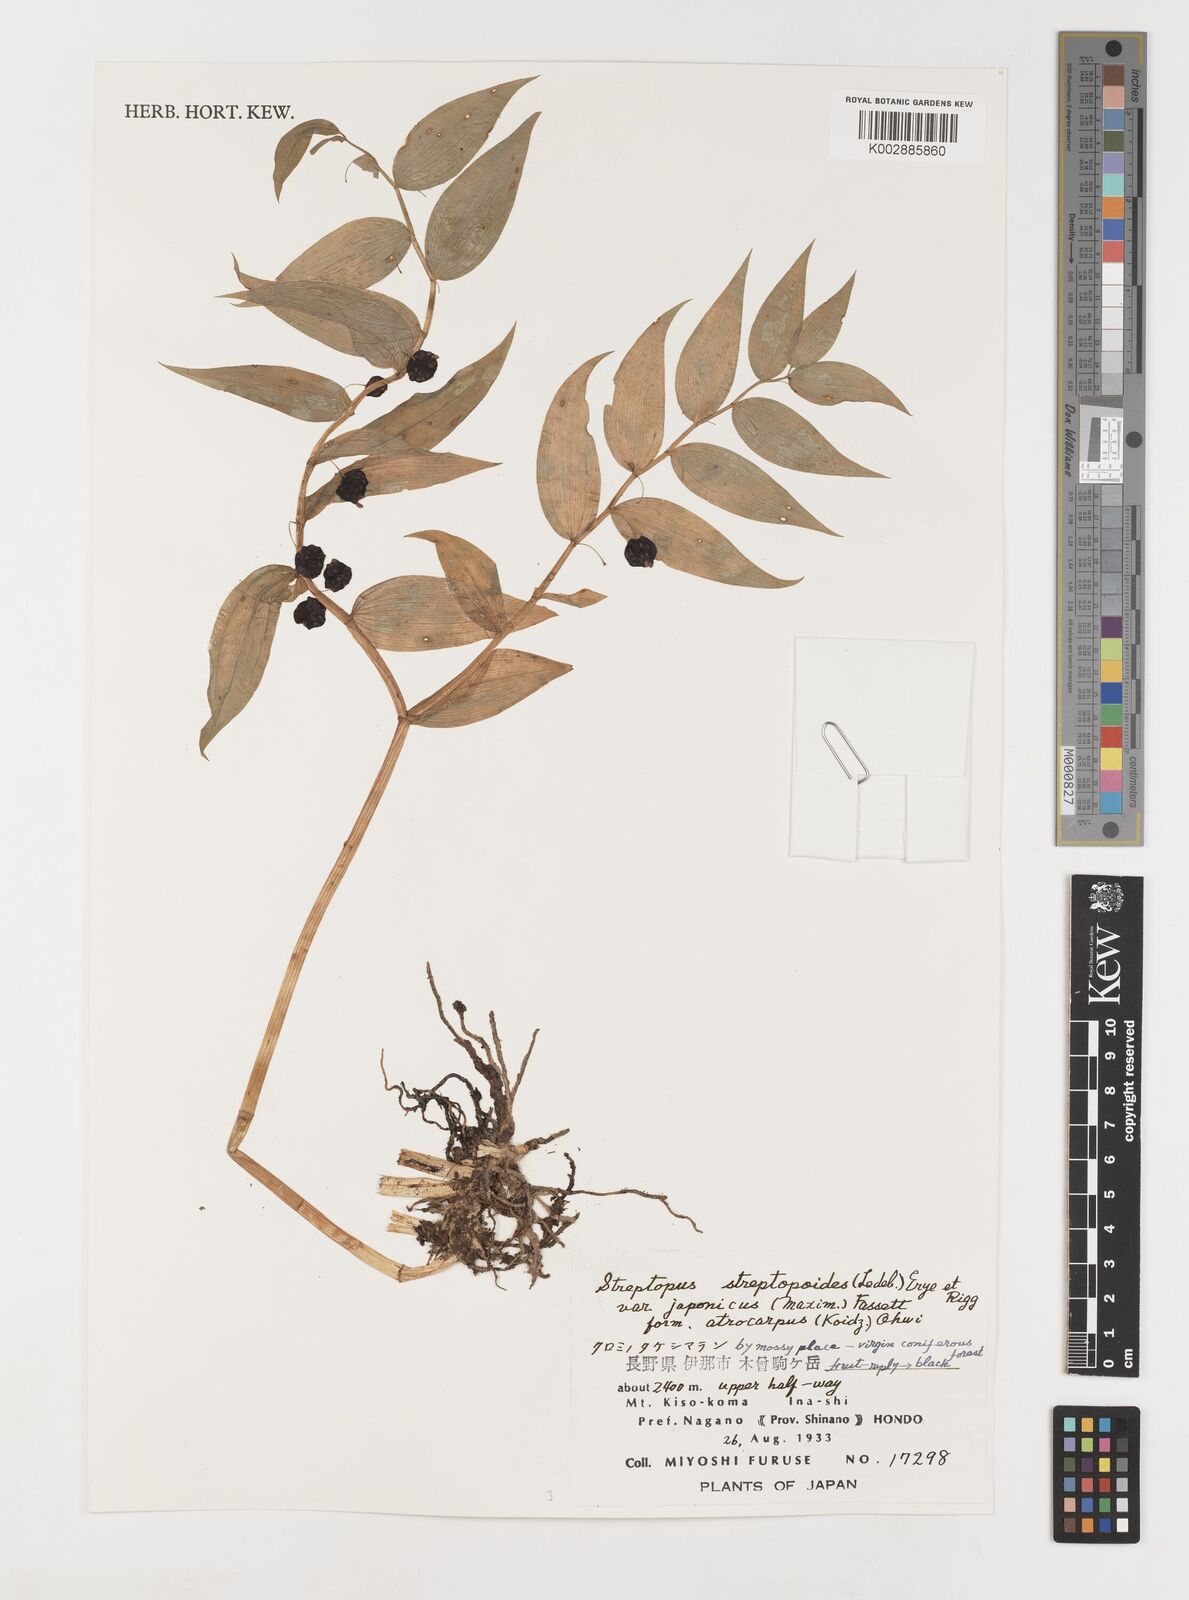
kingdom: Plantae
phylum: Tracheophyta
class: Liliopsida
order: Liliales
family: Liliaceae
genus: Streptopus
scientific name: Streptopus streptopoides
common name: Small twisted-stalk
